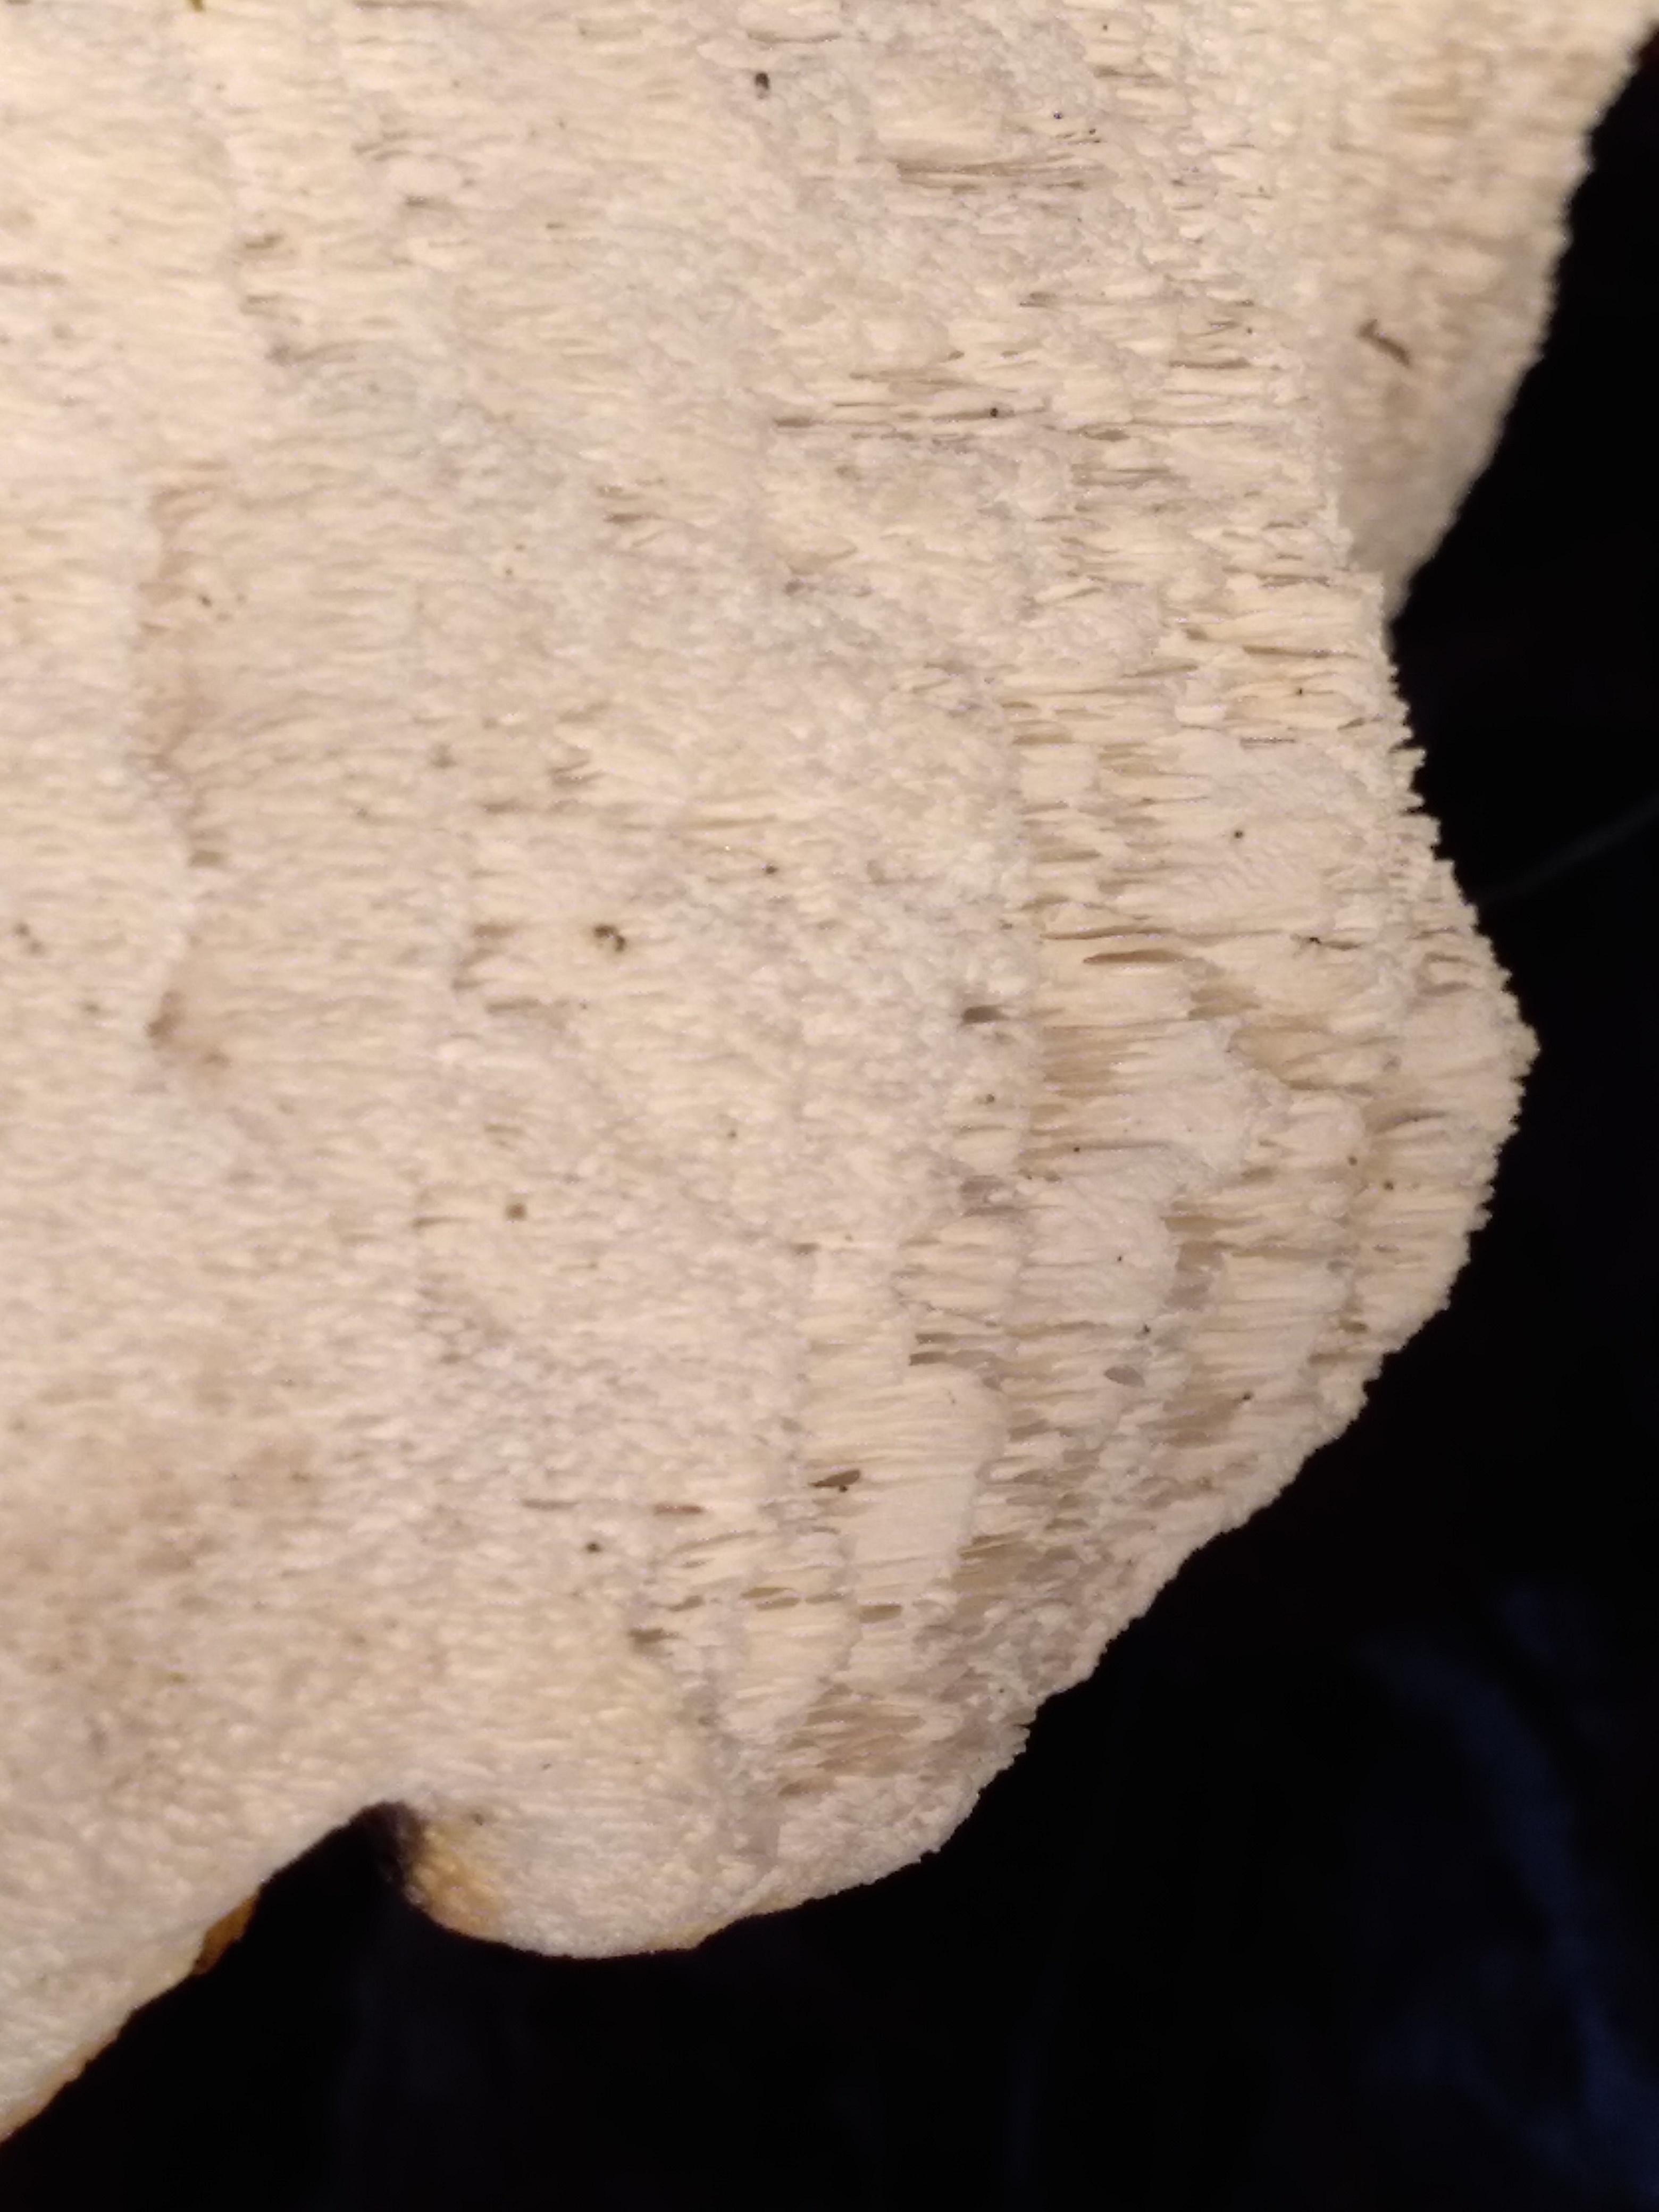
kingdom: Fungi
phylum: Basidiomycota
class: Agaricomycetes
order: Polyporales
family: Fomitopsidaceae
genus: Fomitopsis
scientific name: Fomitopsis betulina
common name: birkeporesvamp
